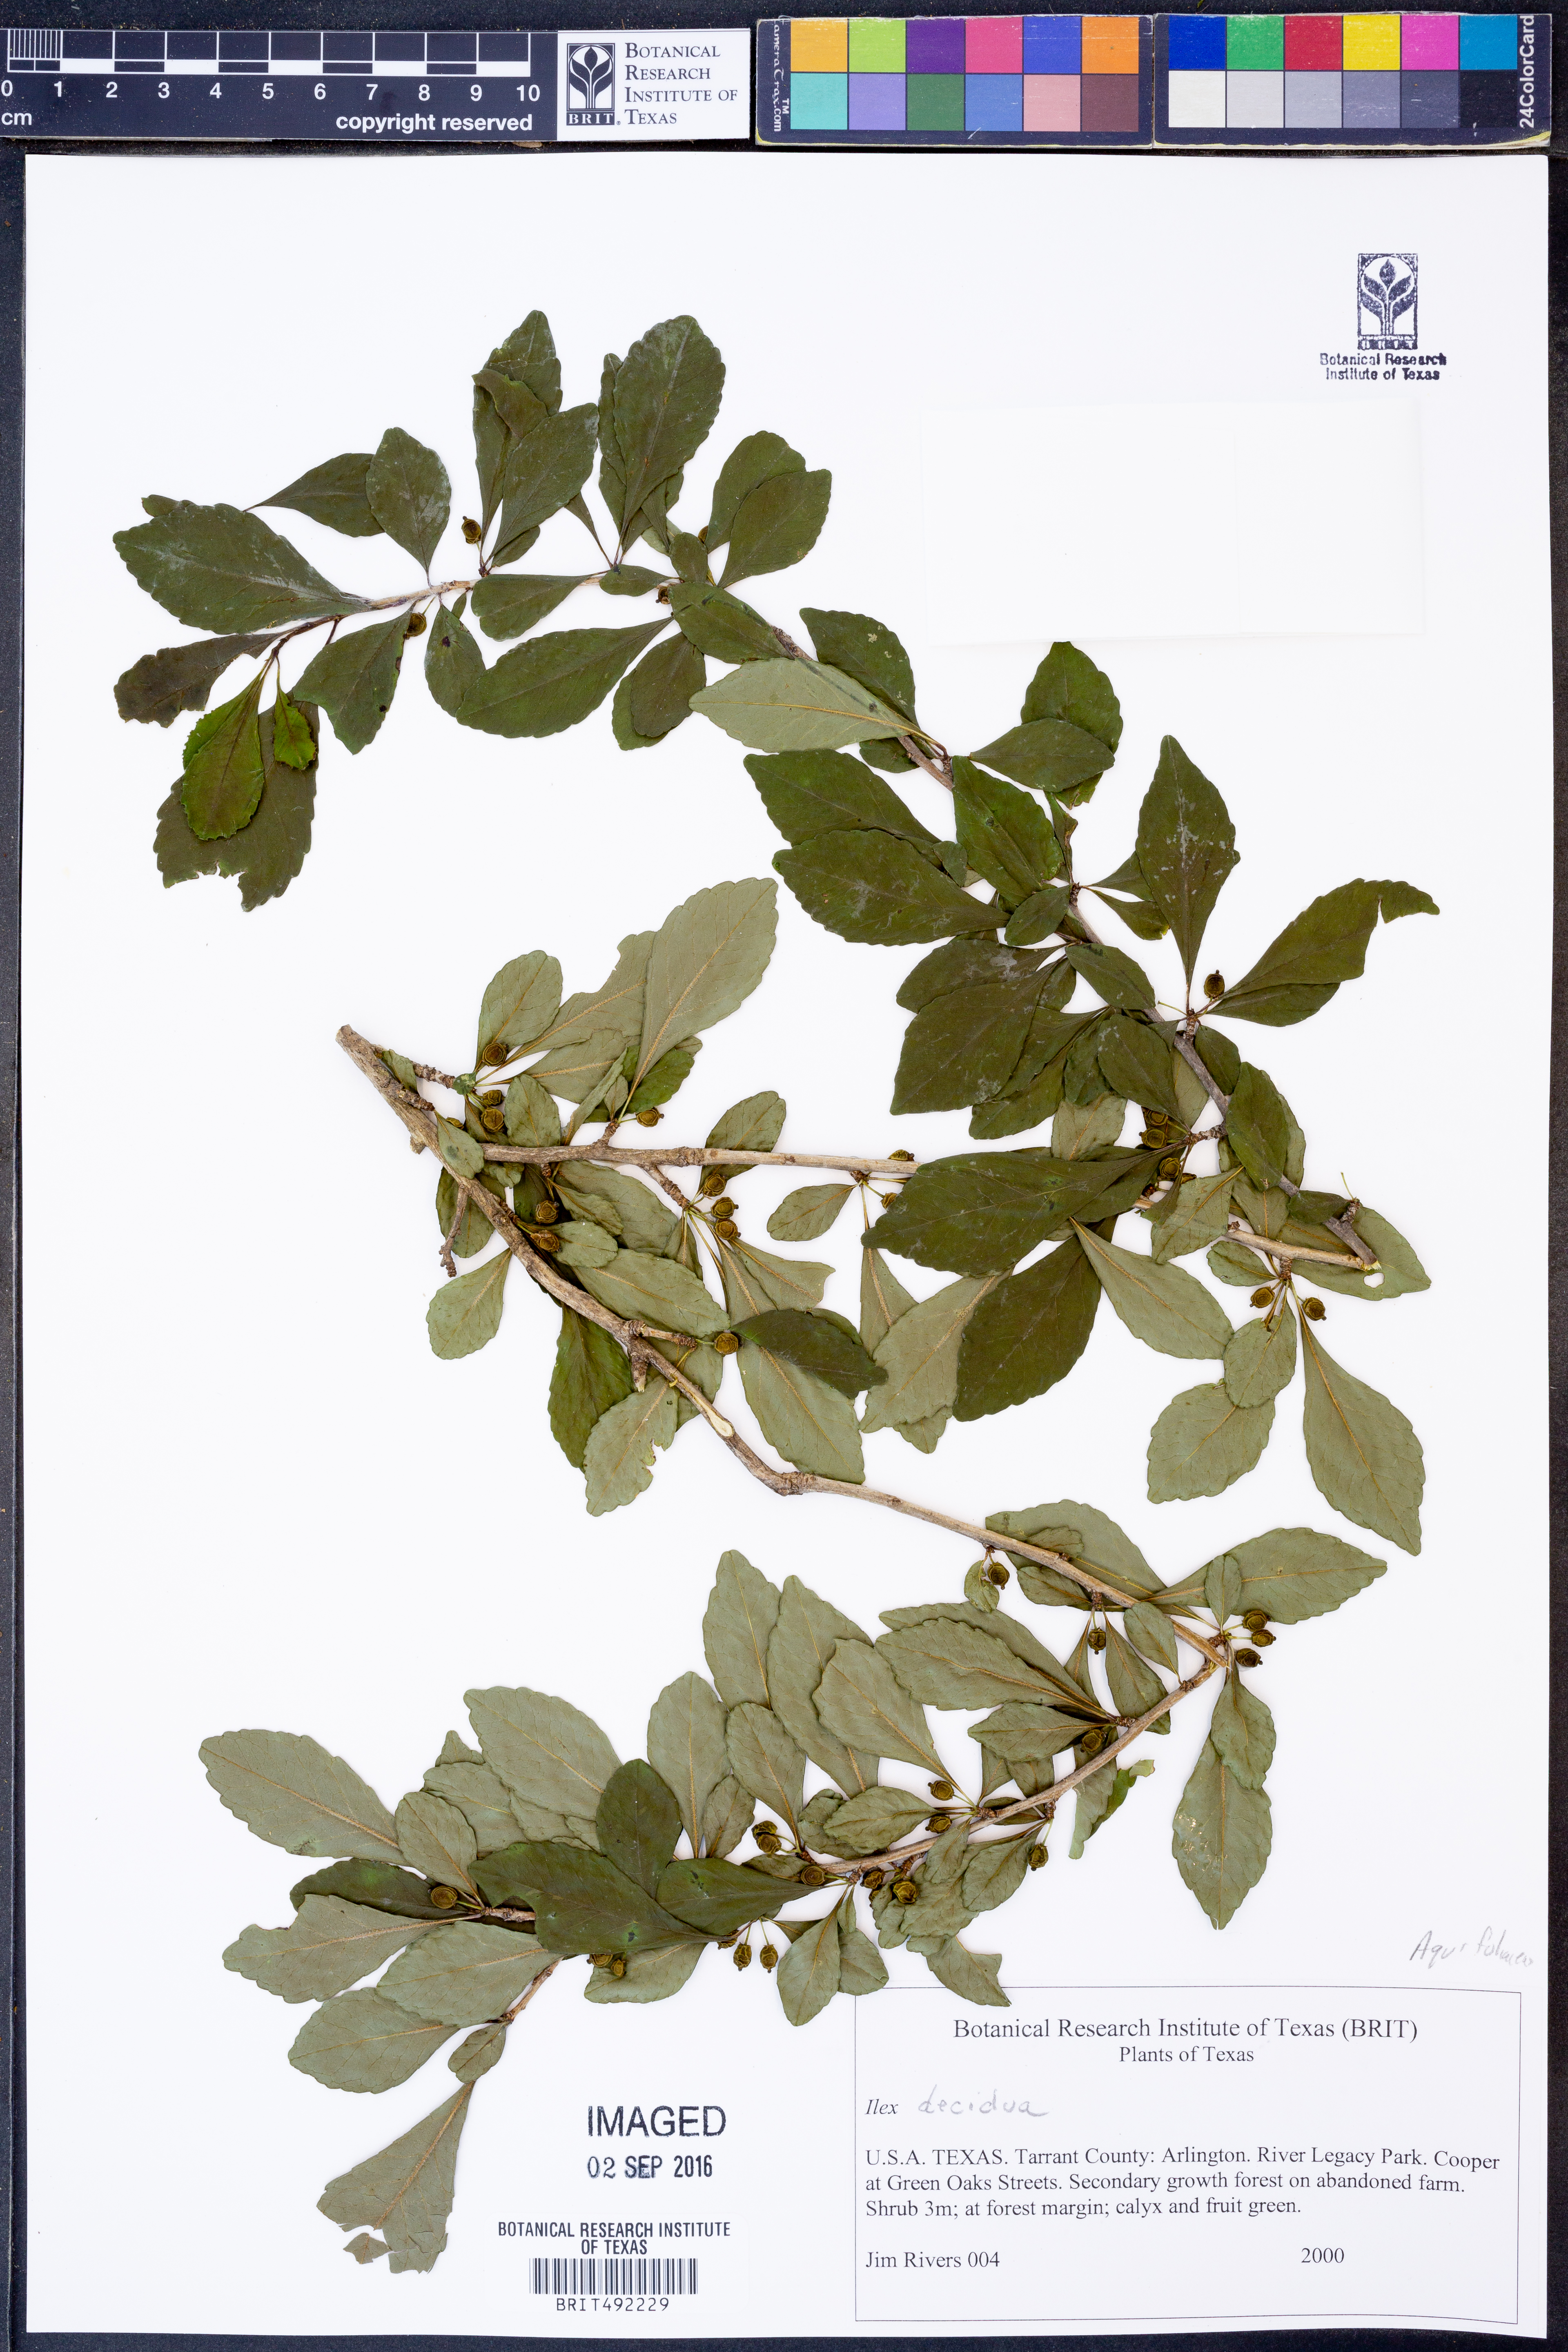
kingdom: Plantae
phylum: Tracheophyta
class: Magnoliopsida
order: Aquifoliales
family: Aquifoliaceae
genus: Ilex
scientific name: Ilex decidua
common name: Possum-haw
